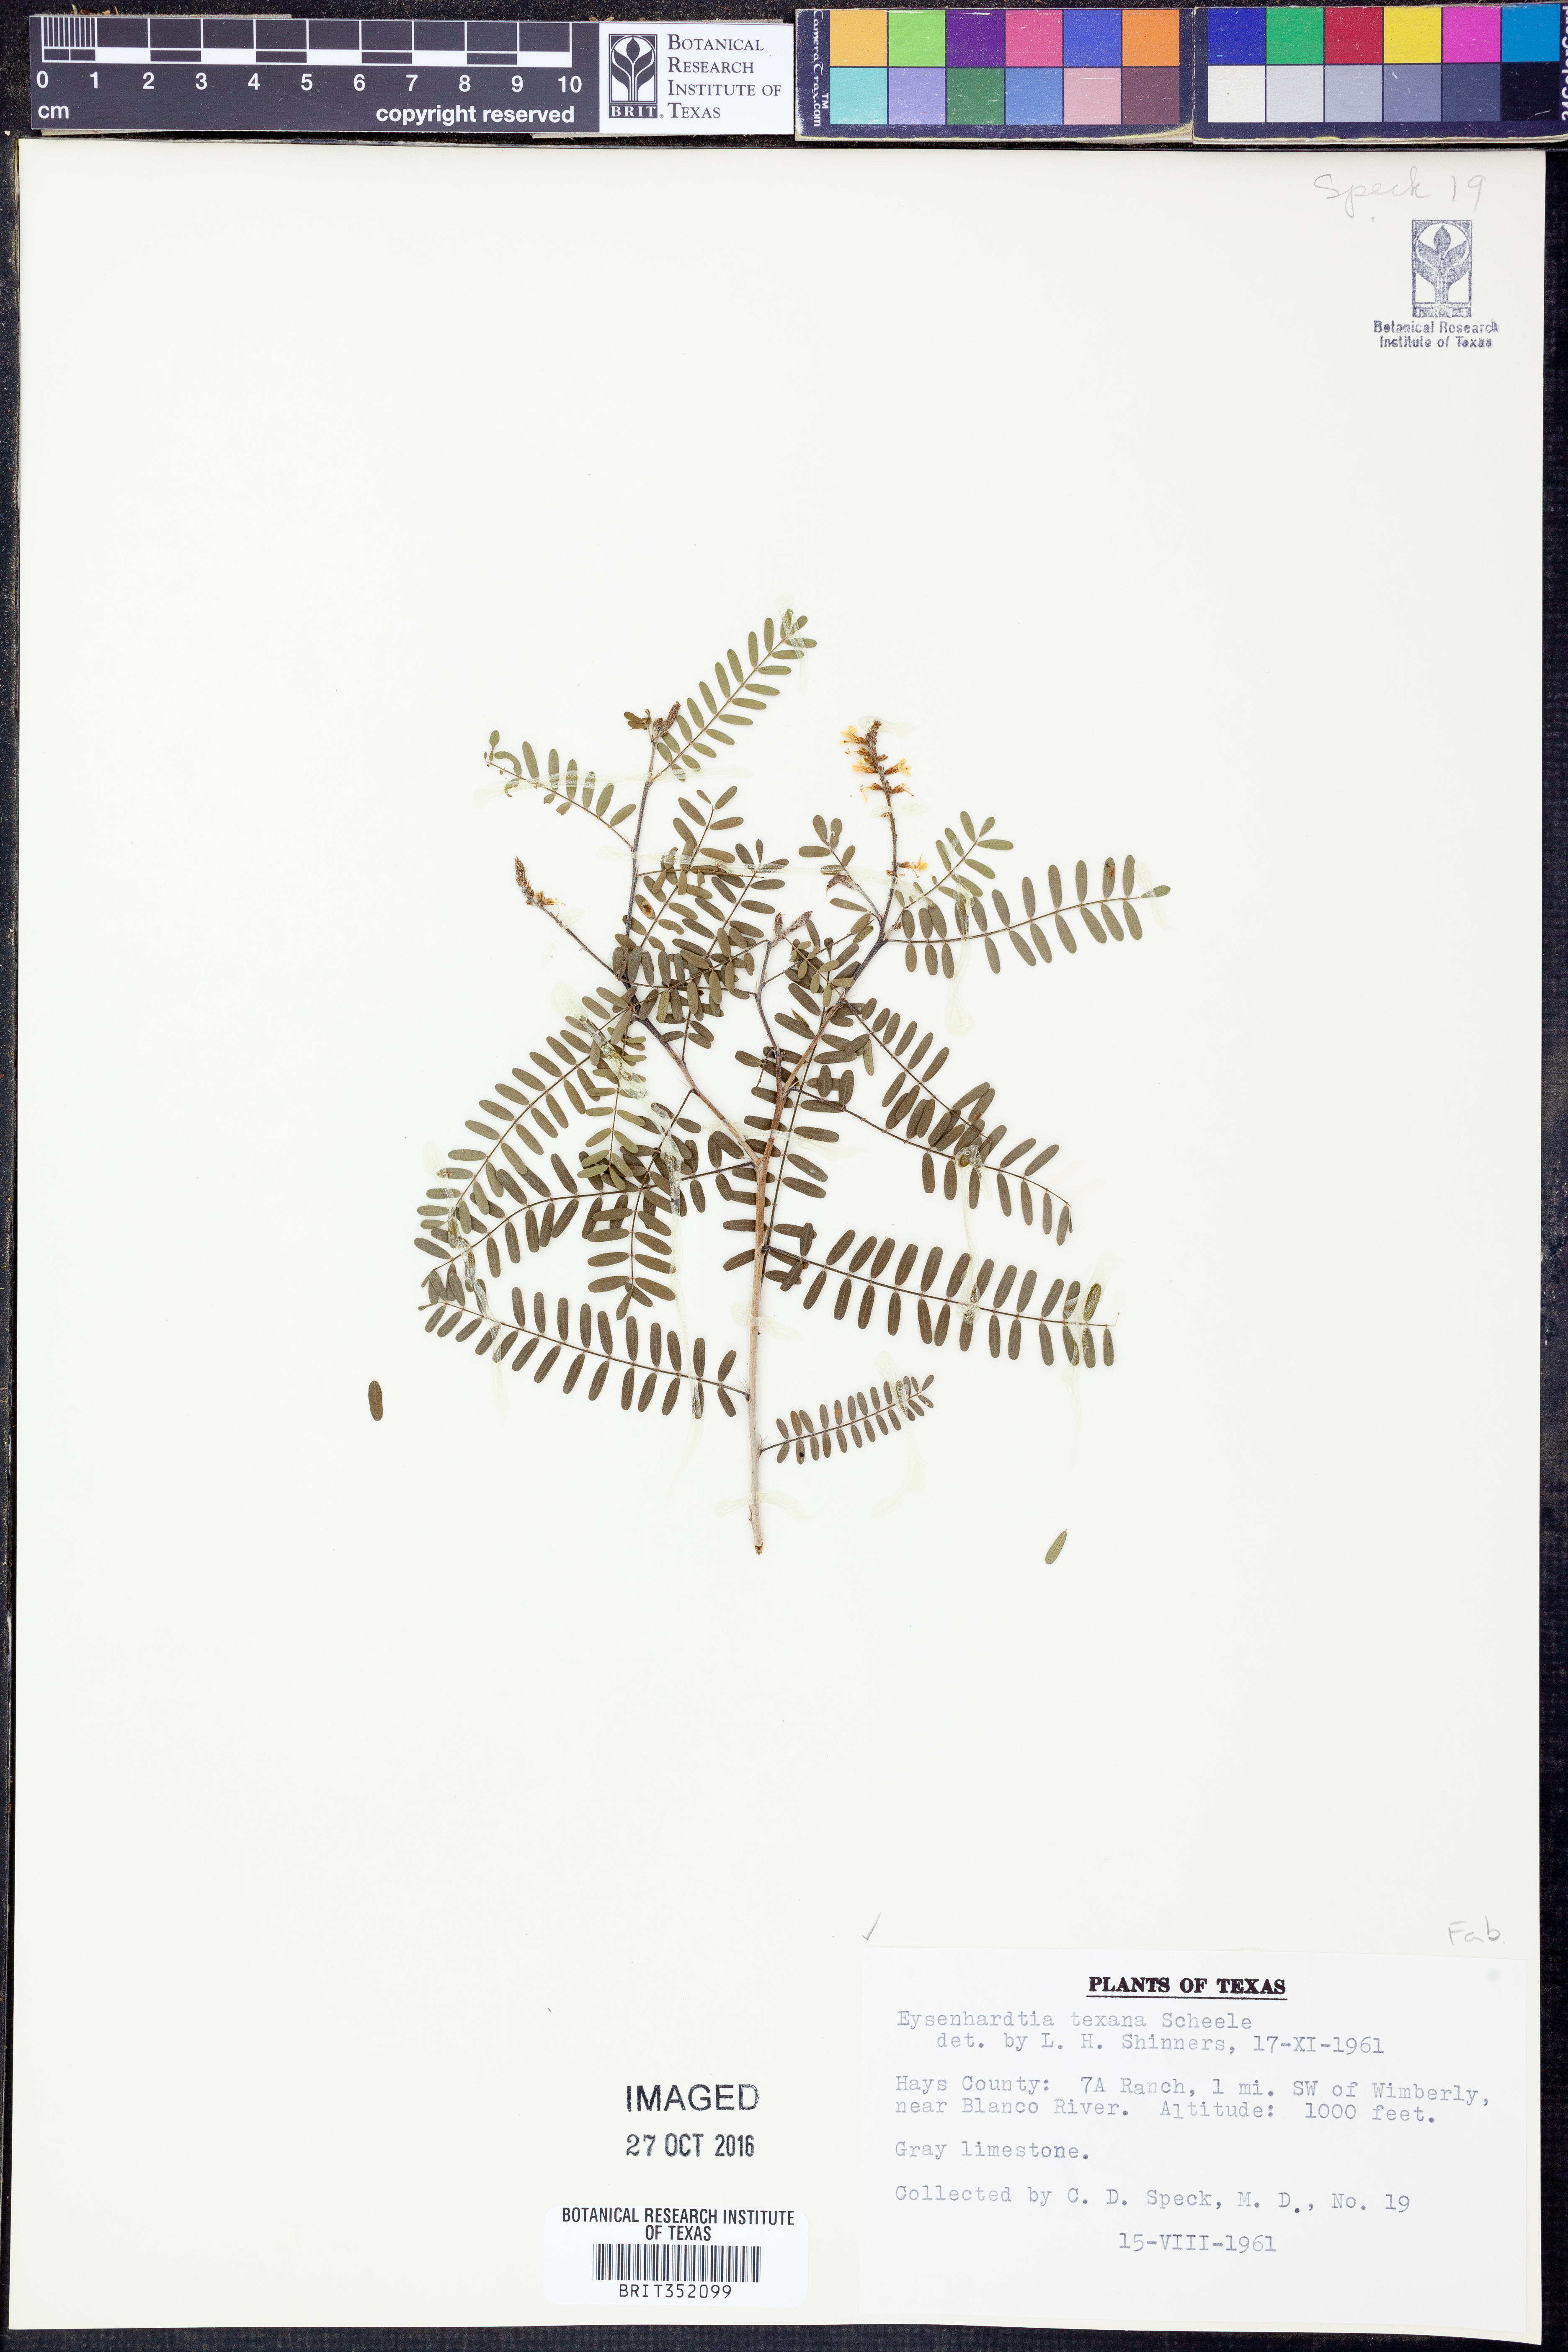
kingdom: Plantae
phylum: Tracheophyta
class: Magnoliopsida
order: Fabales
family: Fabaceae
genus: Eysenhardtia
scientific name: Eysenhardtia texana
